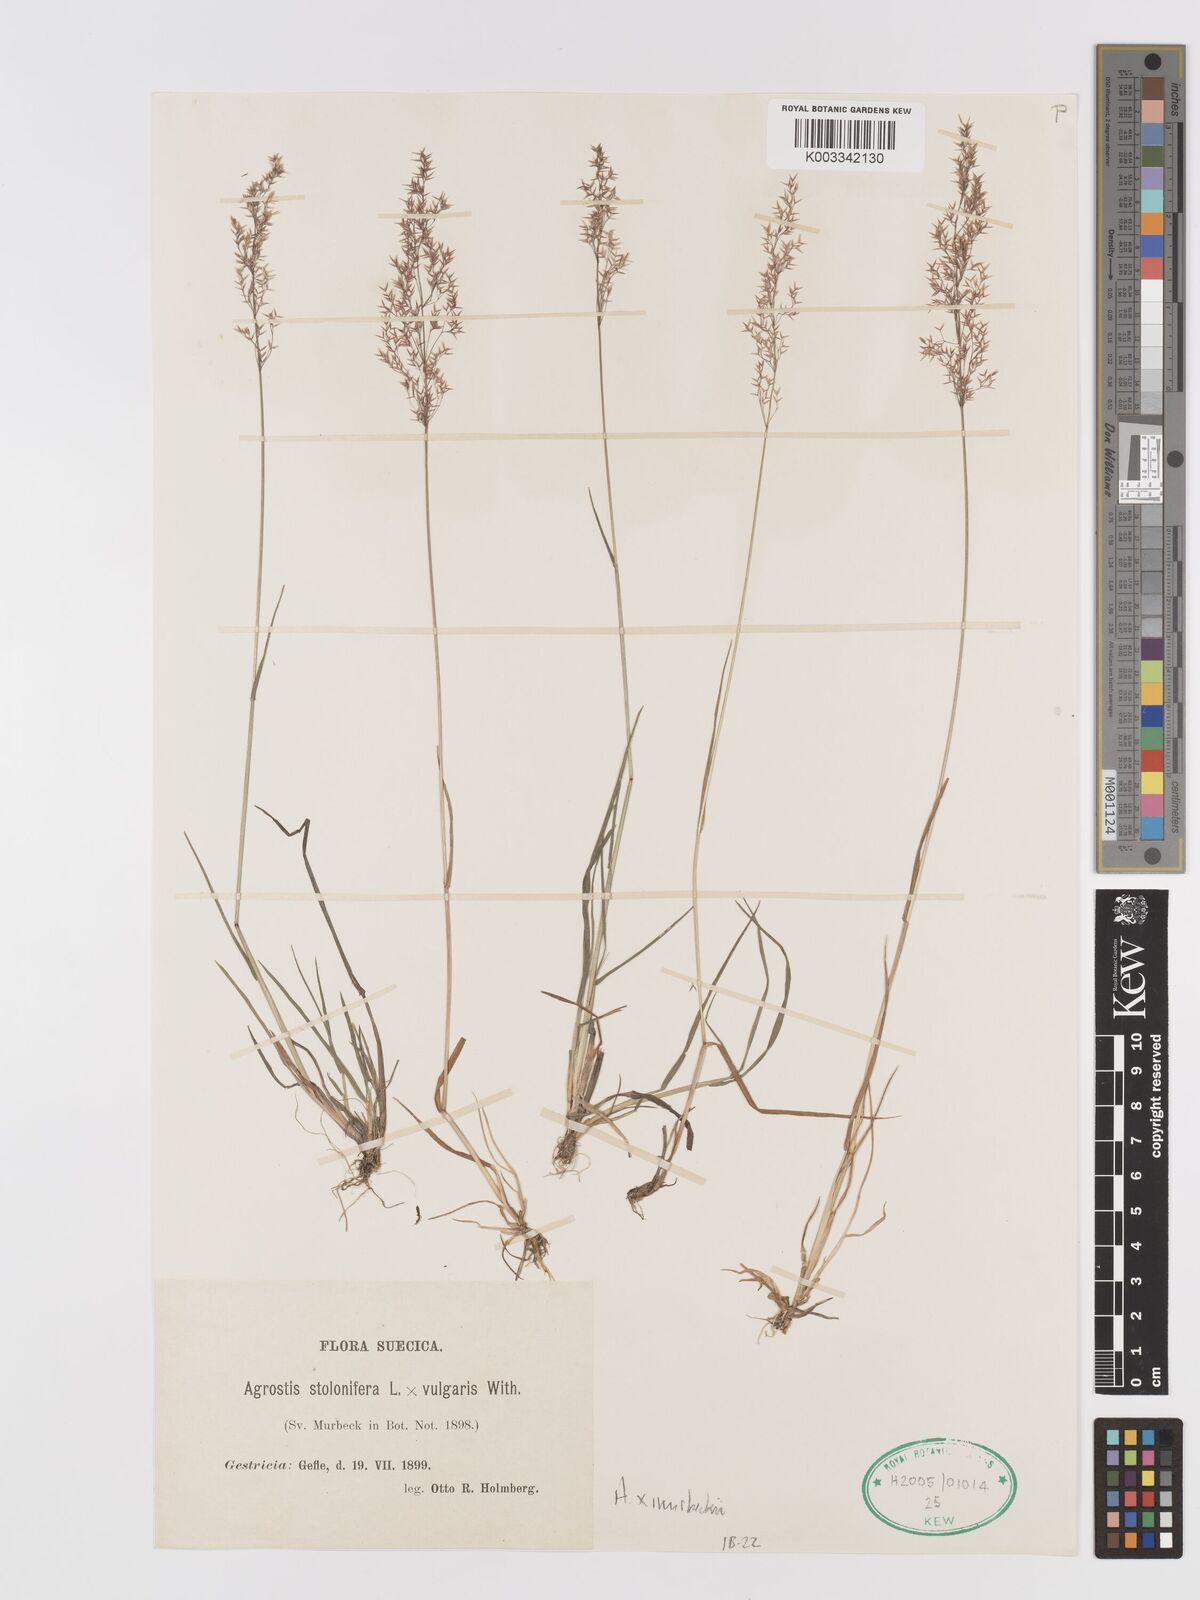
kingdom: Plantae
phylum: Tracheophyta
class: Liliopsida
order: Poales
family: Poaceae
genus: Agrostis
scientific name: Agrostis stolonifera
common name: Creeping bentgrass
